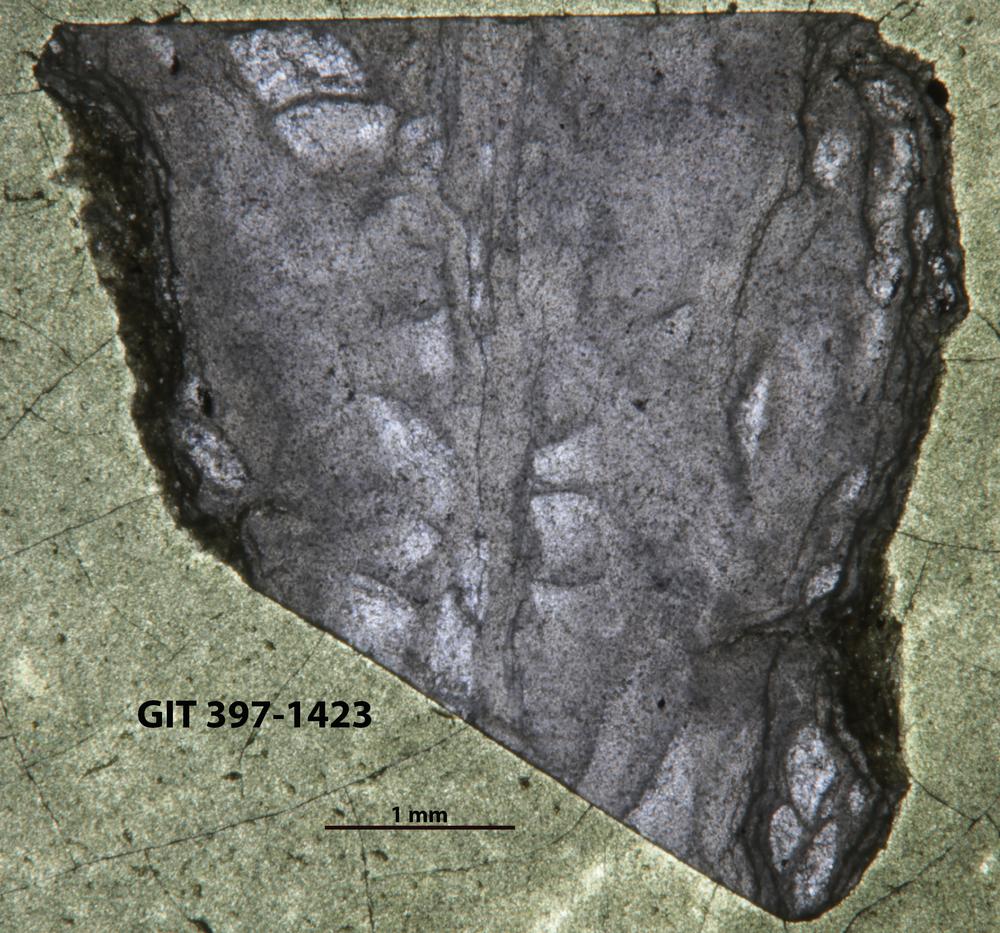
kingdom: Animalia
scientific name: Animalia
